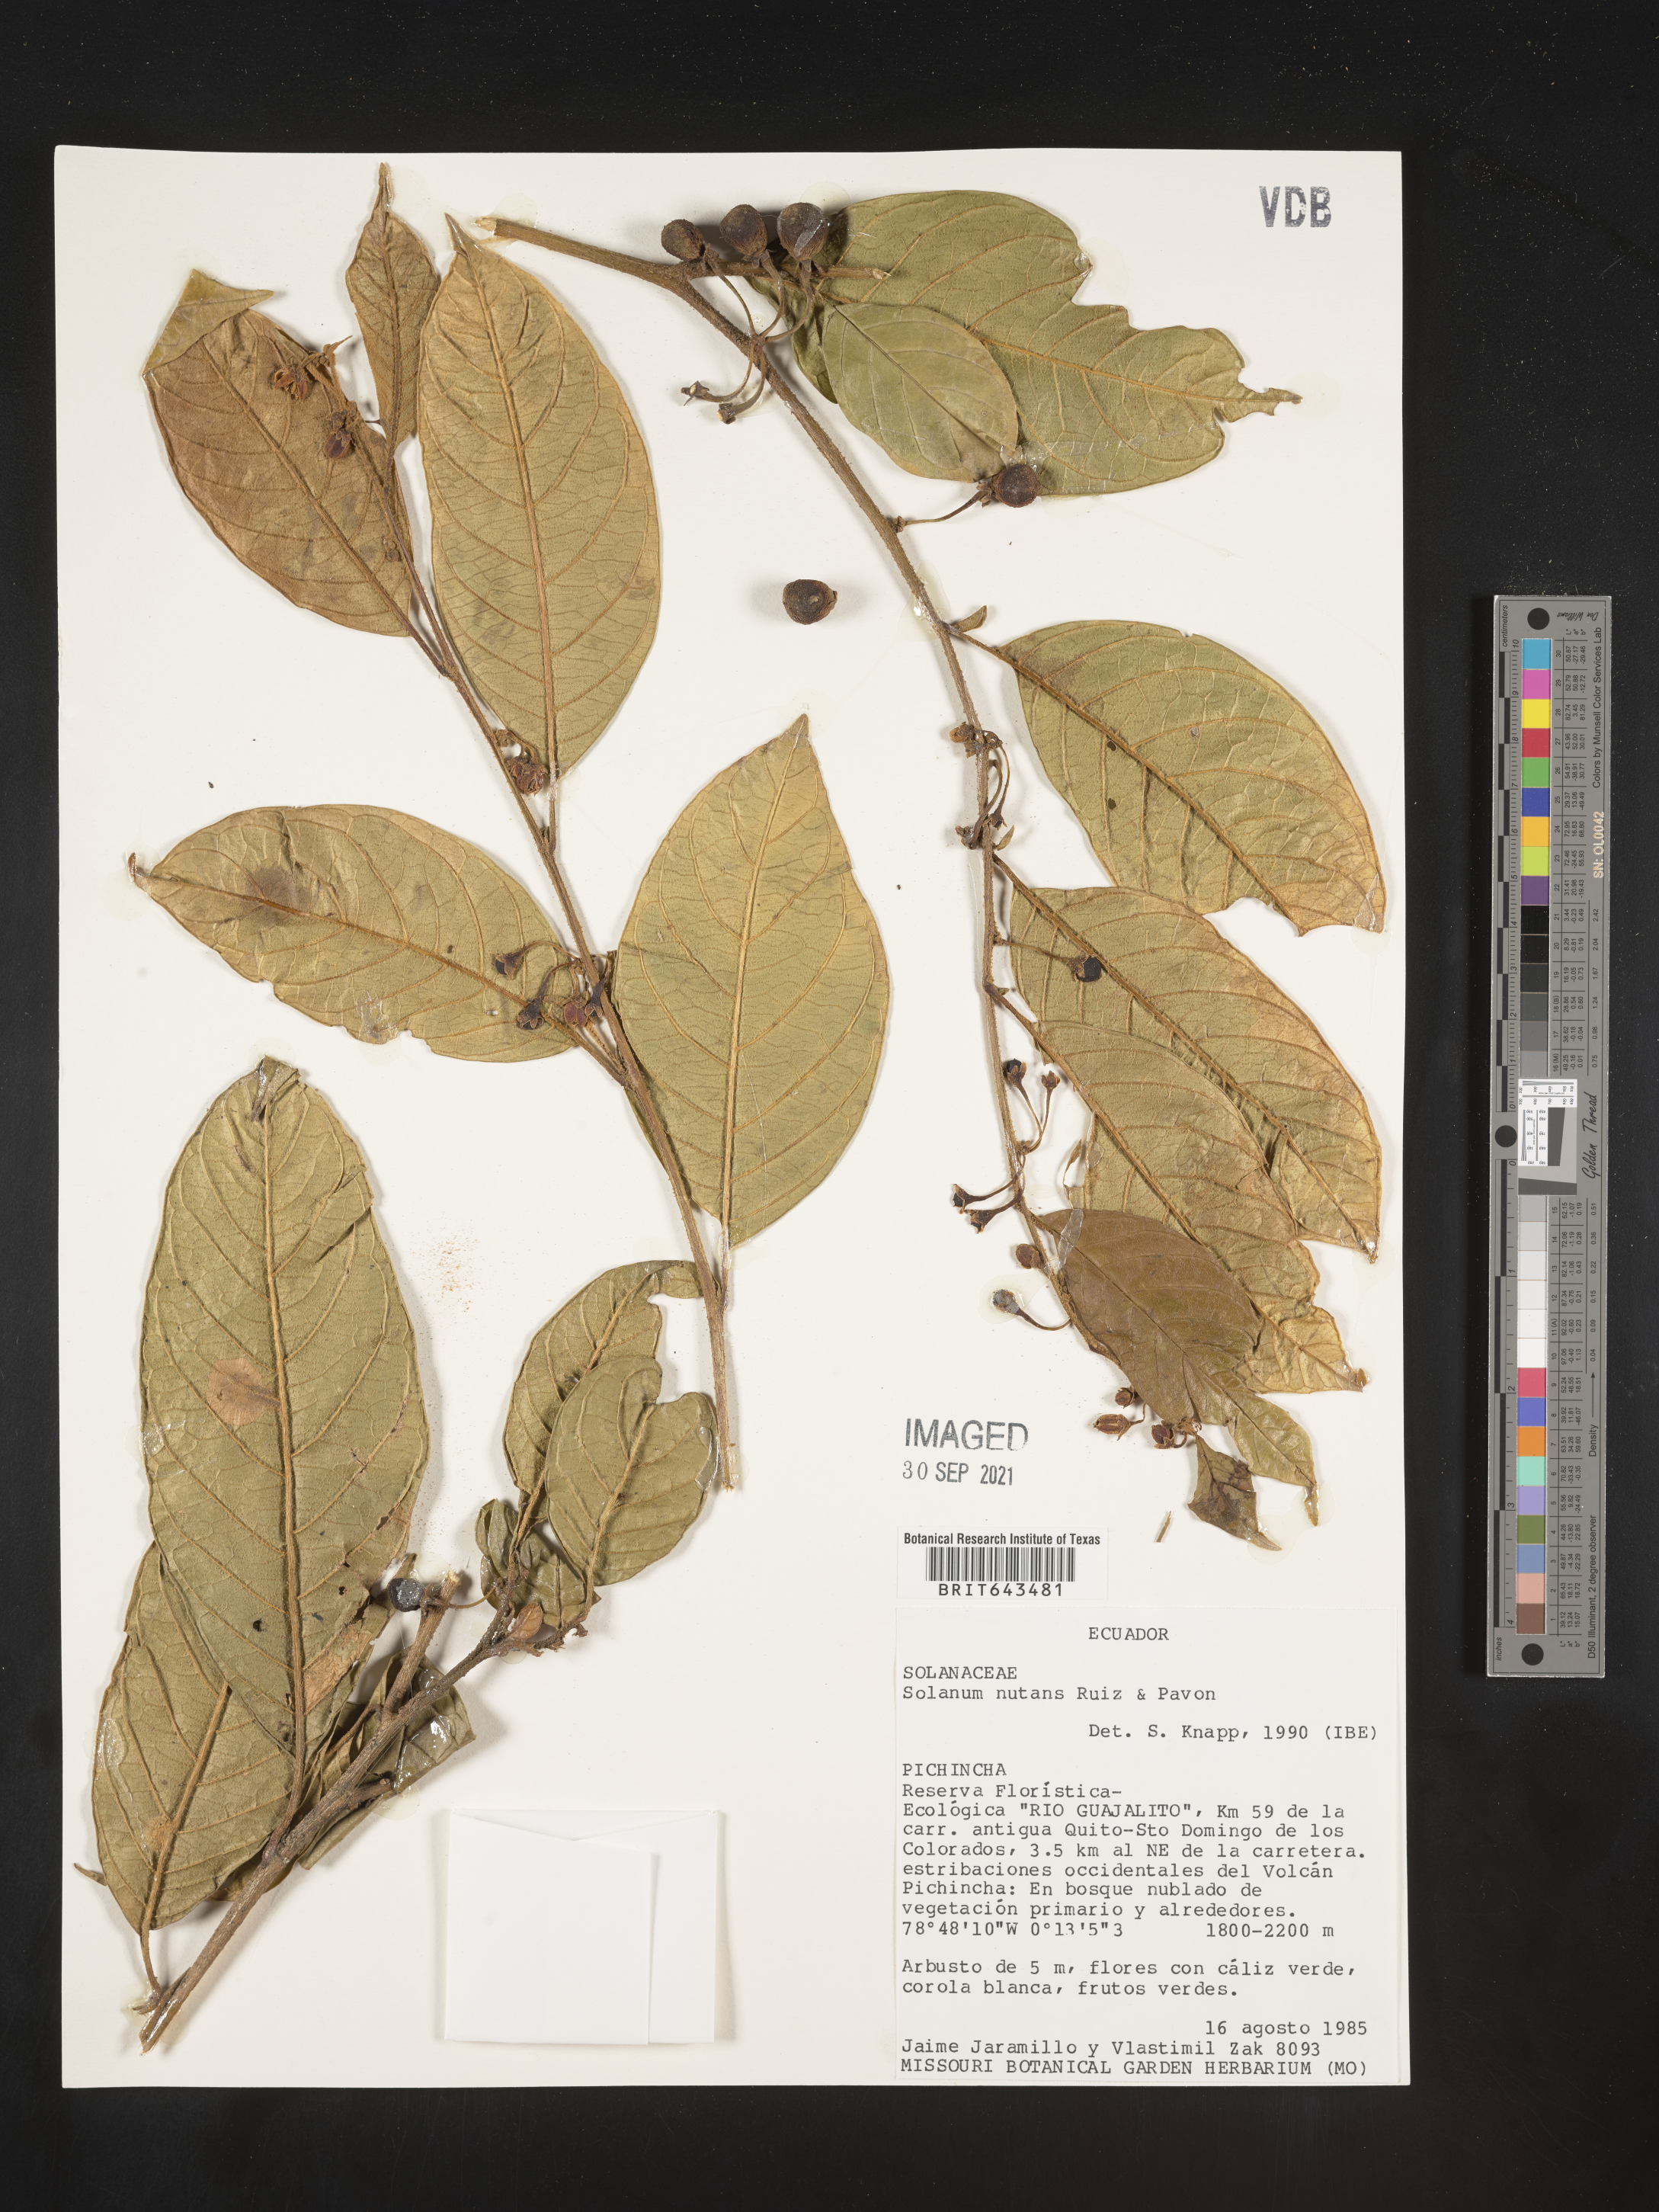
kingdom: Plantae
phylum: Tracheophyta
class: Magnoliopsida
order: Solanales
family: Solanaceae
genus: Solanum
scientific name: Solanum
